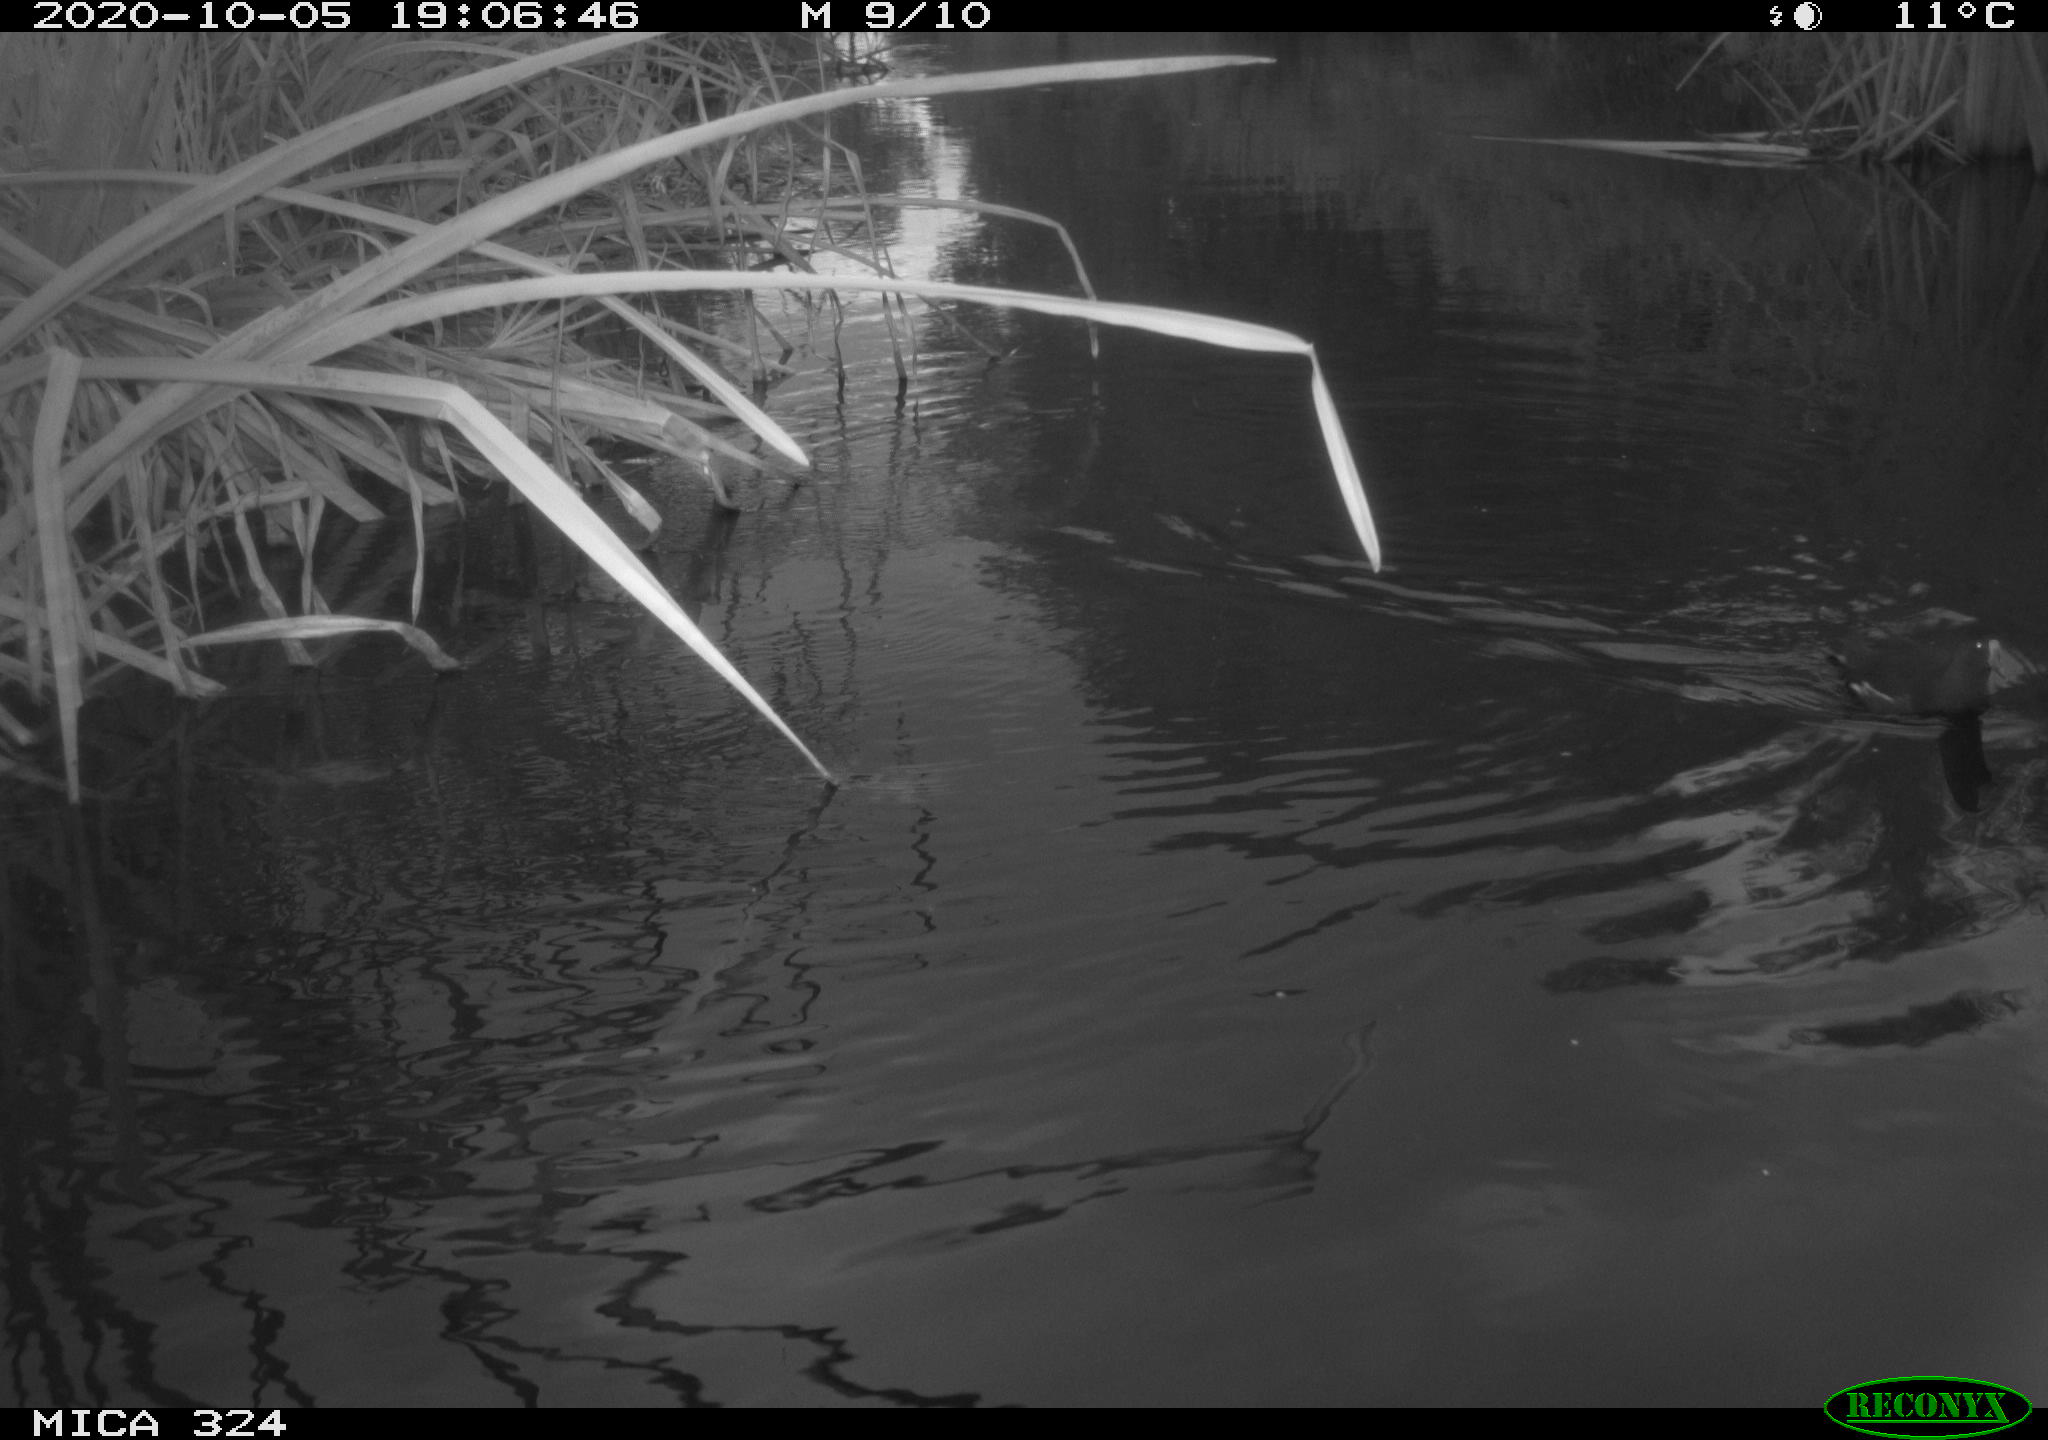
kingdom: Animalia
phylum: Chordata
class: Aves
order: Gruiformes
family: Rallidae
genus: Gallinula
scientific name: Gallinula chloropus
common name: Common moorhen
